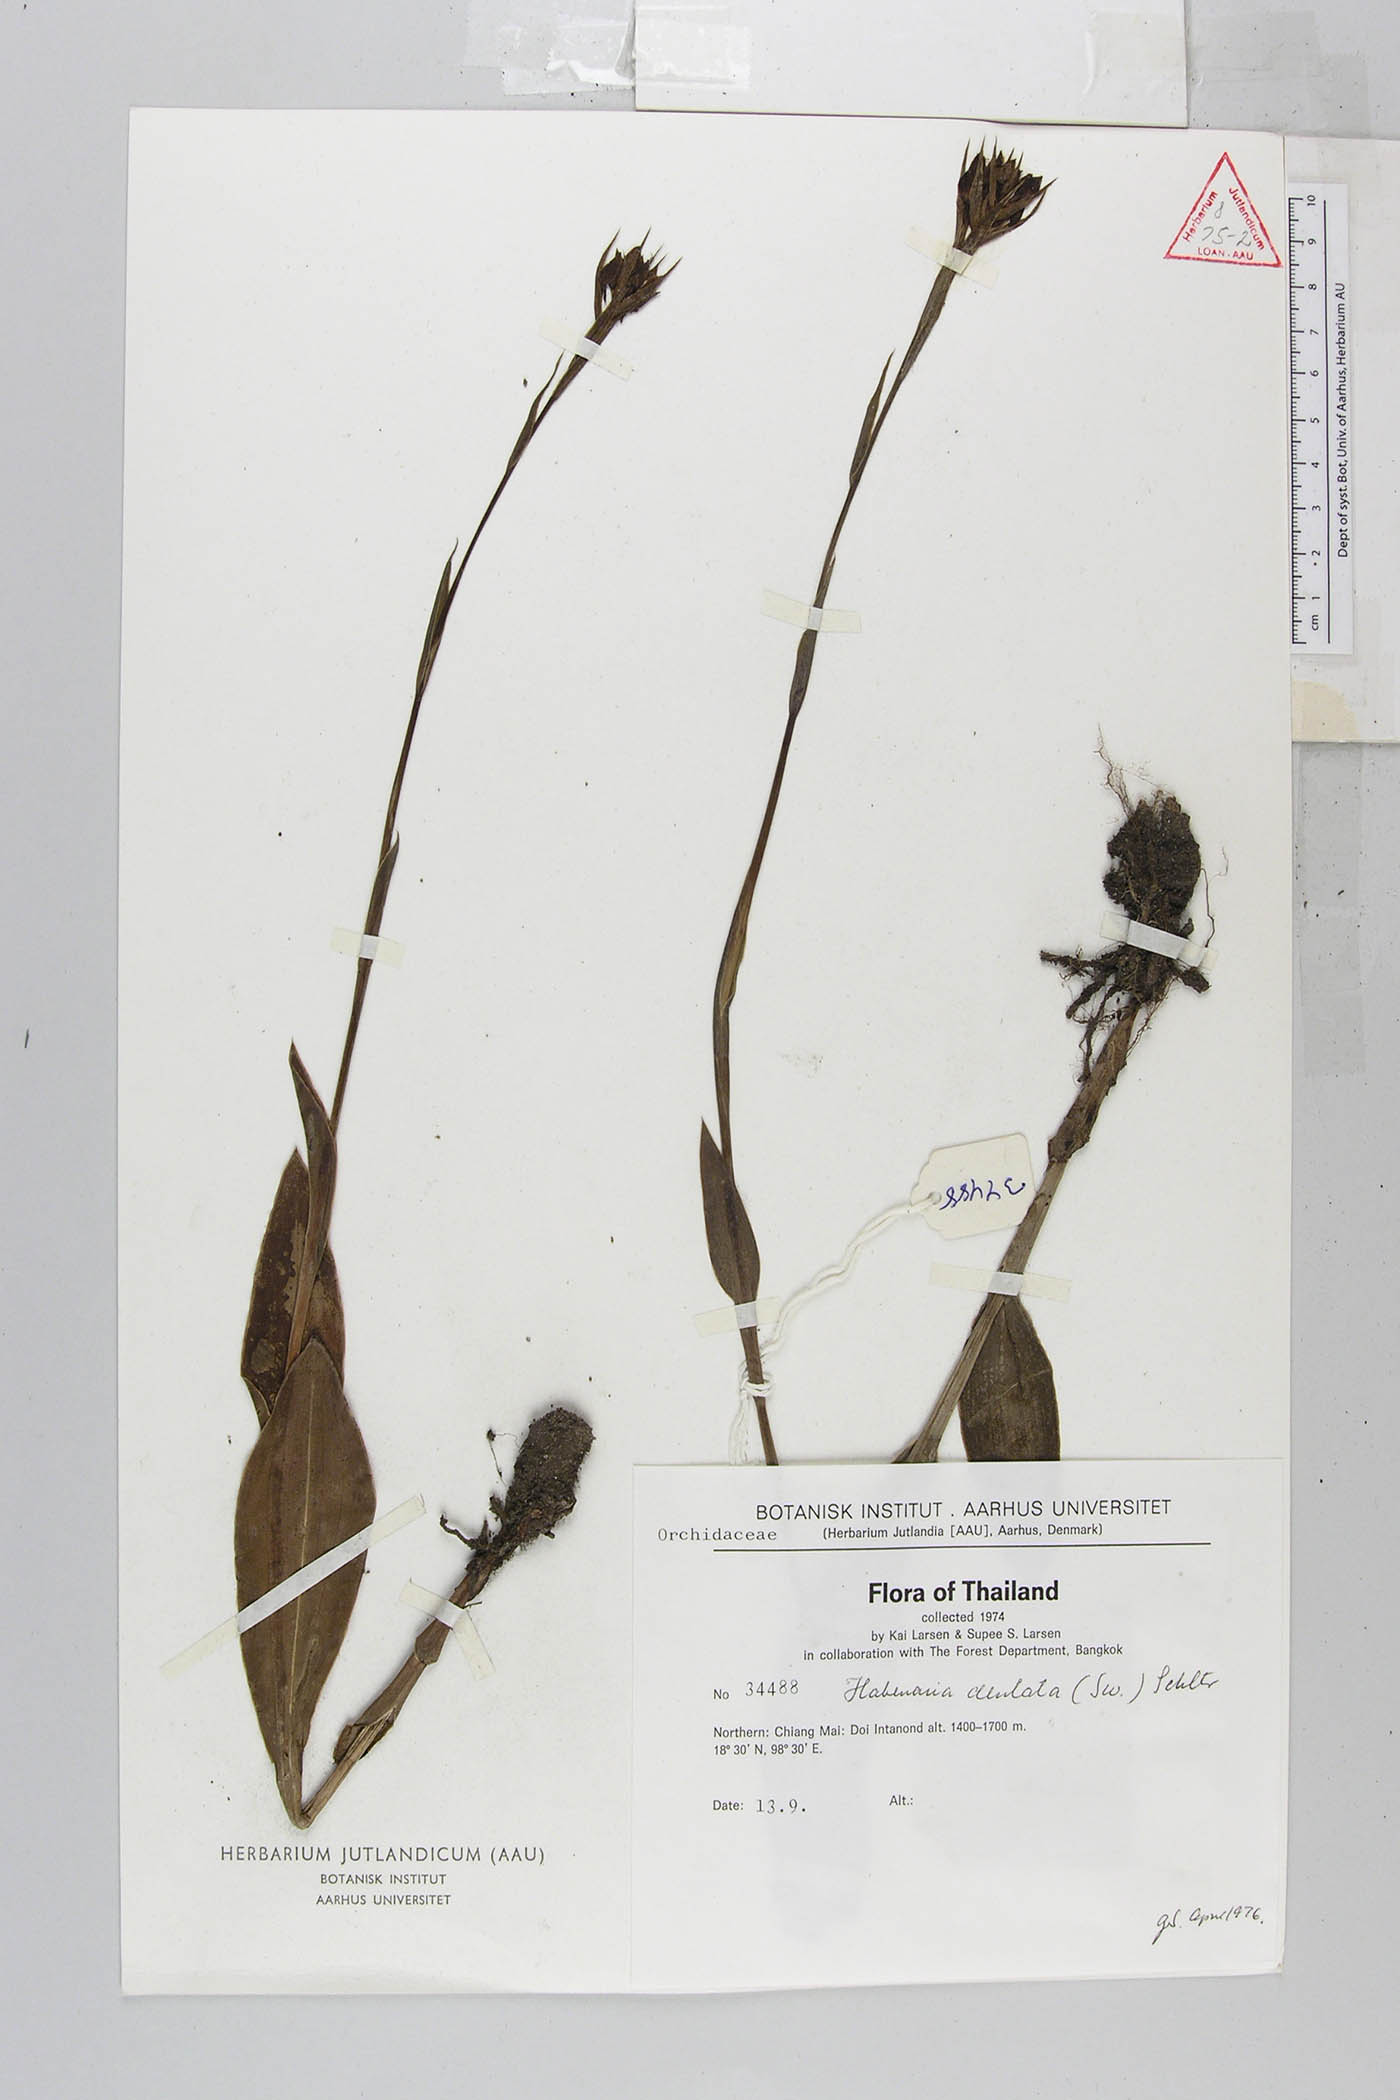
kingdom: Plantae
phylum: Tracheophyta
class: Liliopsida
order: Asparagales
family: Orchidaceae
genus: Habenaria
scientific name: Habenaria dentata
